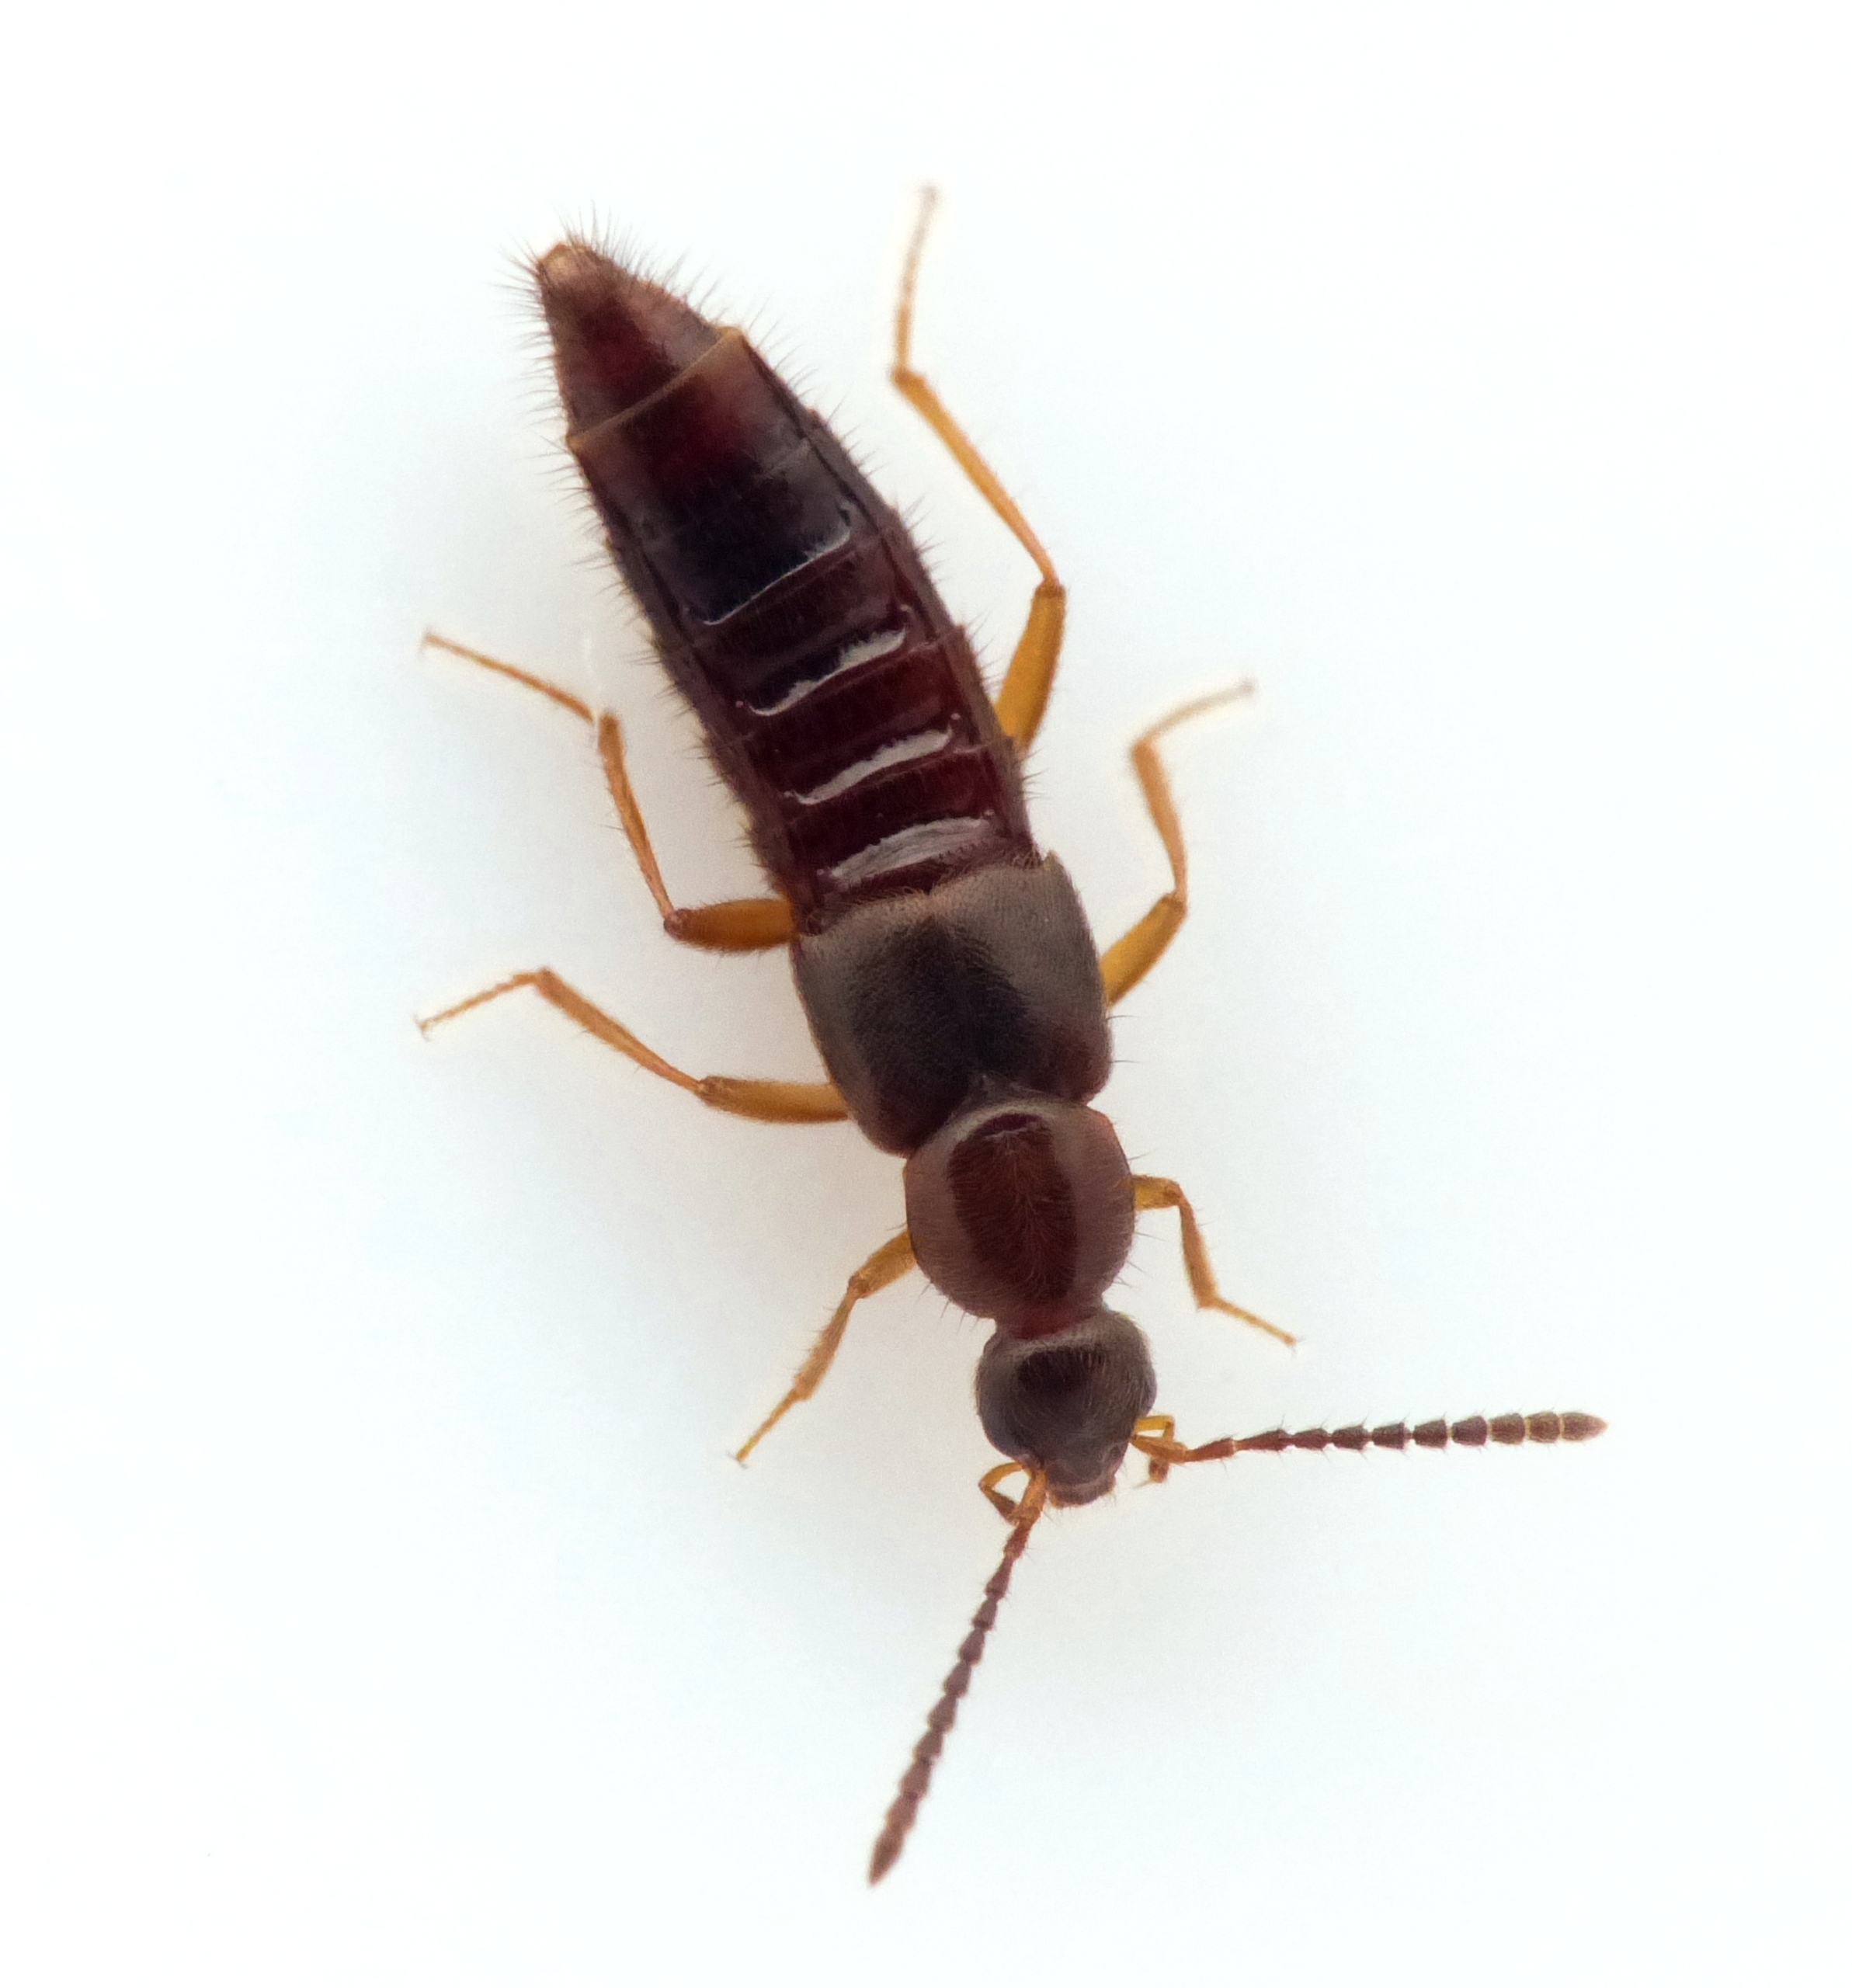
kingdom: Animalia
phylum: Arthropoda
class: Insecta
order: Coleoptera
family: Staphylinidae
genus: Ocalea
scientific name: Ocalea picata
